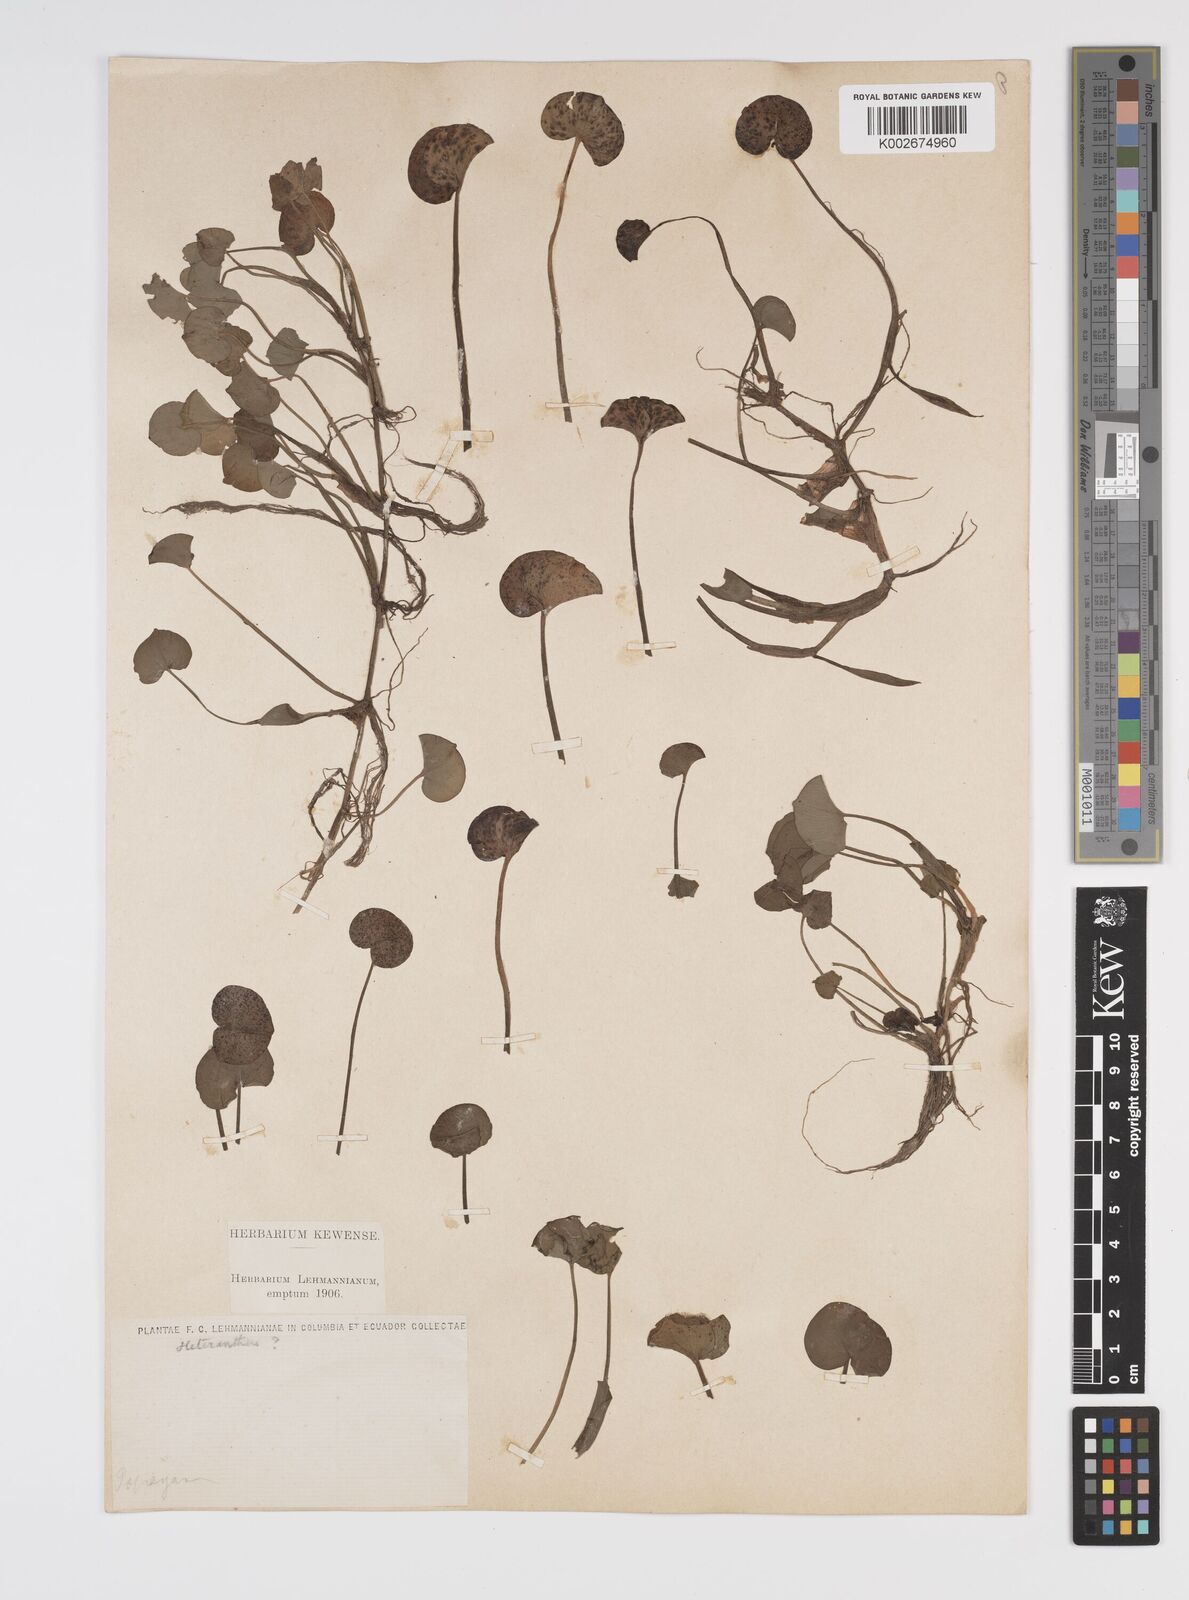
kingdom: Plantae
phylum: Tracheophyta
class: Liliopsida
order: Commelinales
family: Pontederiaceae
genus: Heteranthera
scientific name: Heteranthera reniformis
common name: Kidneyleaf mudplantain
